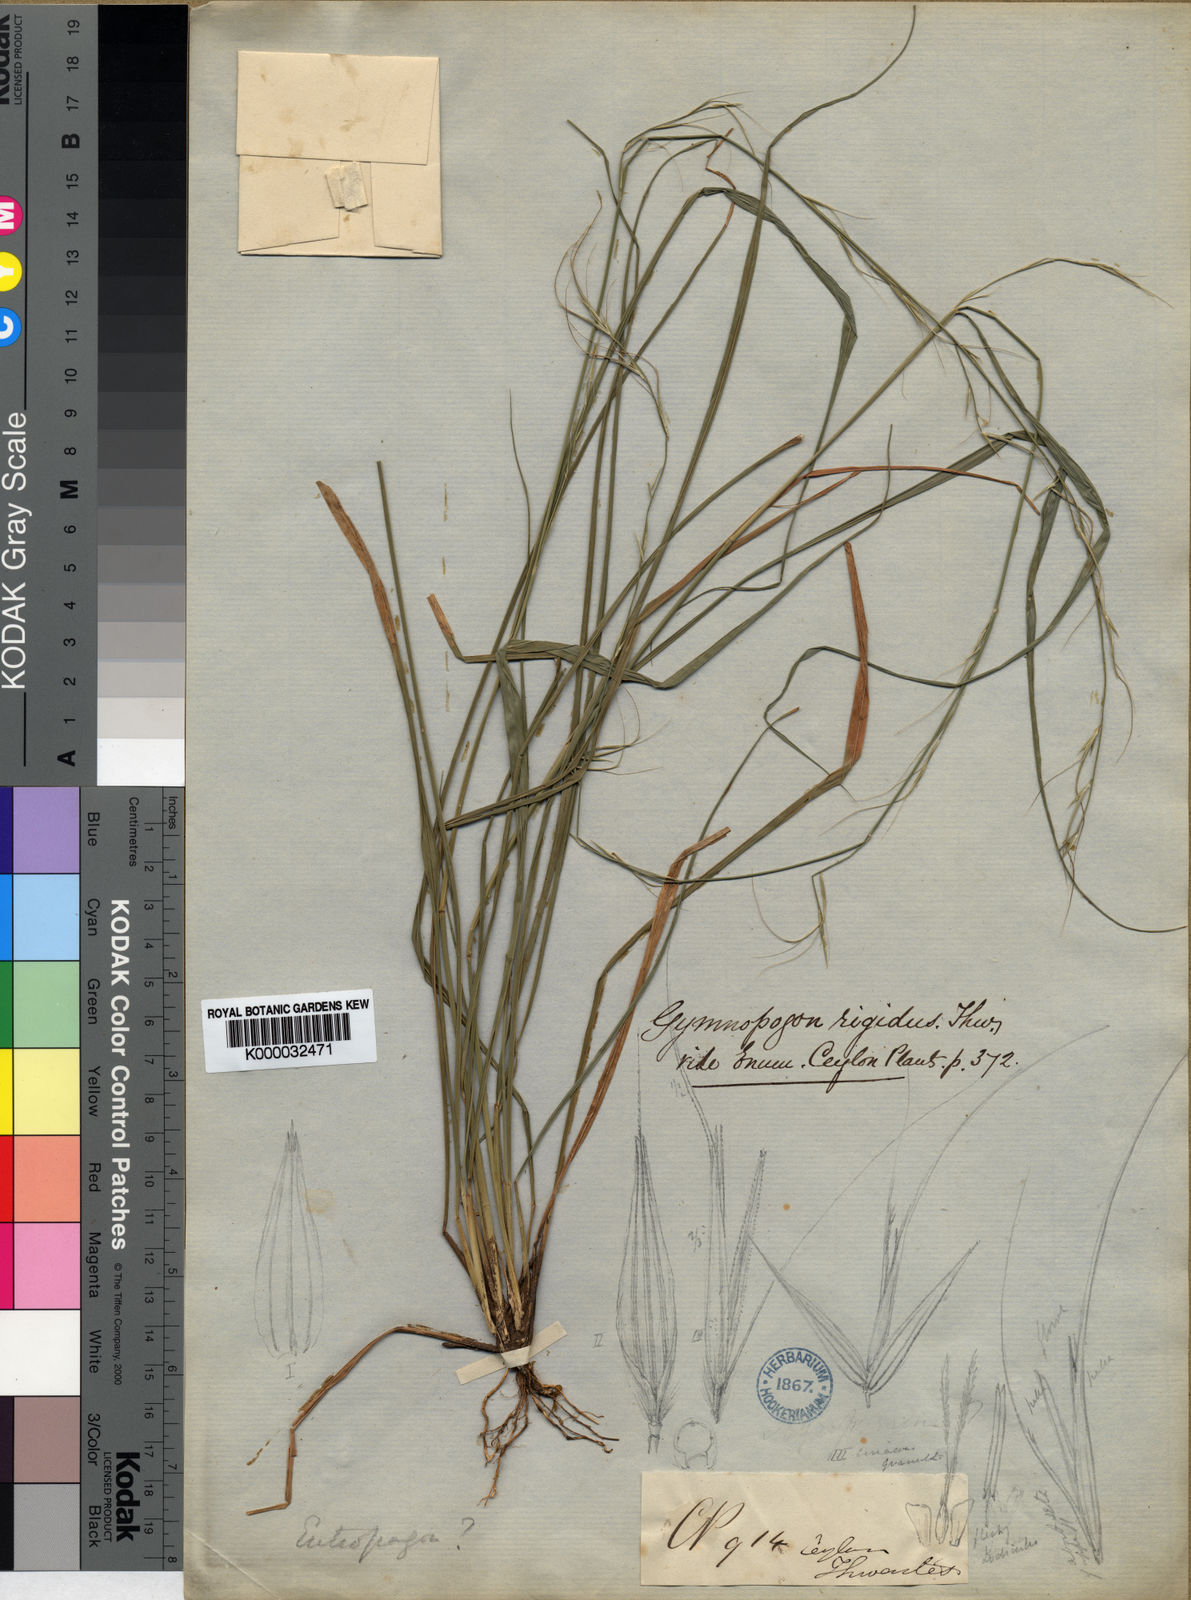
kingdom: Plantae
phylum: Tracheophyta
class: Liliopsida
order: Poales
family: Poaceae
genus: Dichaetaria
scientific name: Dichaetaria wightii
